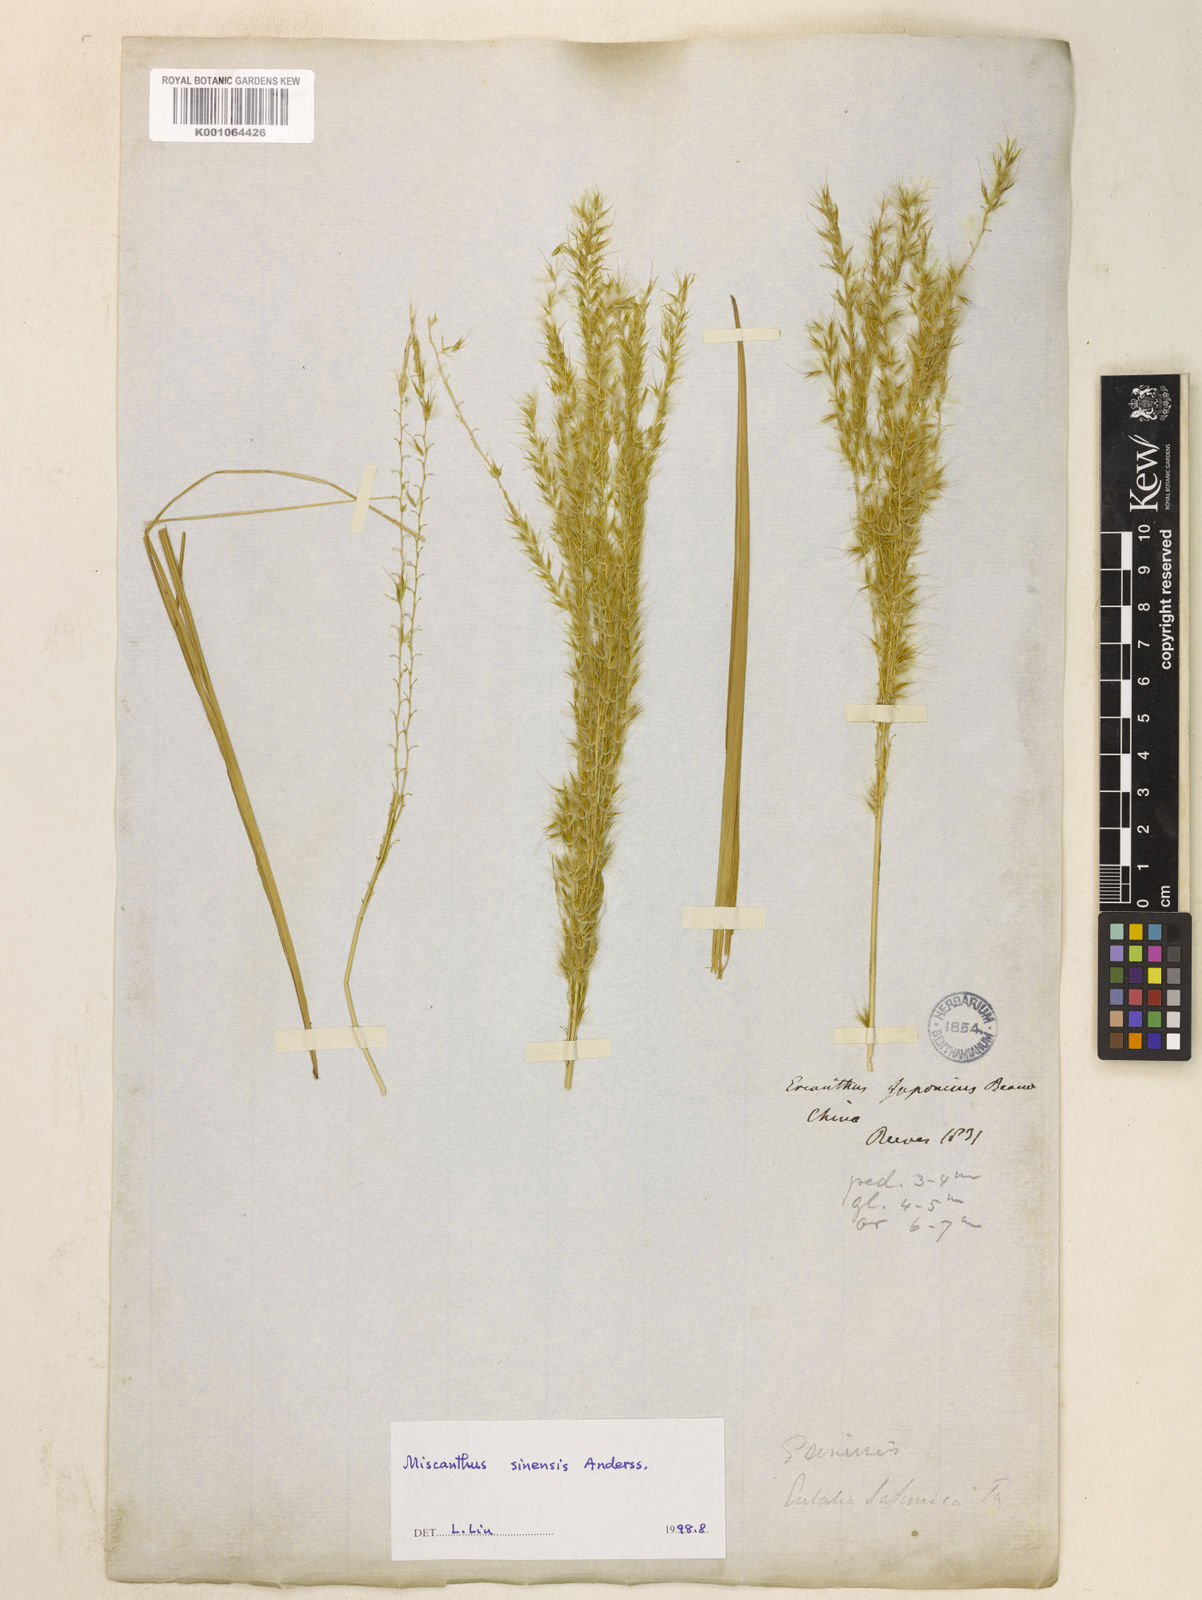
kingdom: Plantae
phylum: Tracheophyta
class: Liliopsida
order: Poales
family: Poaceae
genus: Miscanthus
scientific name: Miscanthus sinensis
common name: Chinese silvergrass
